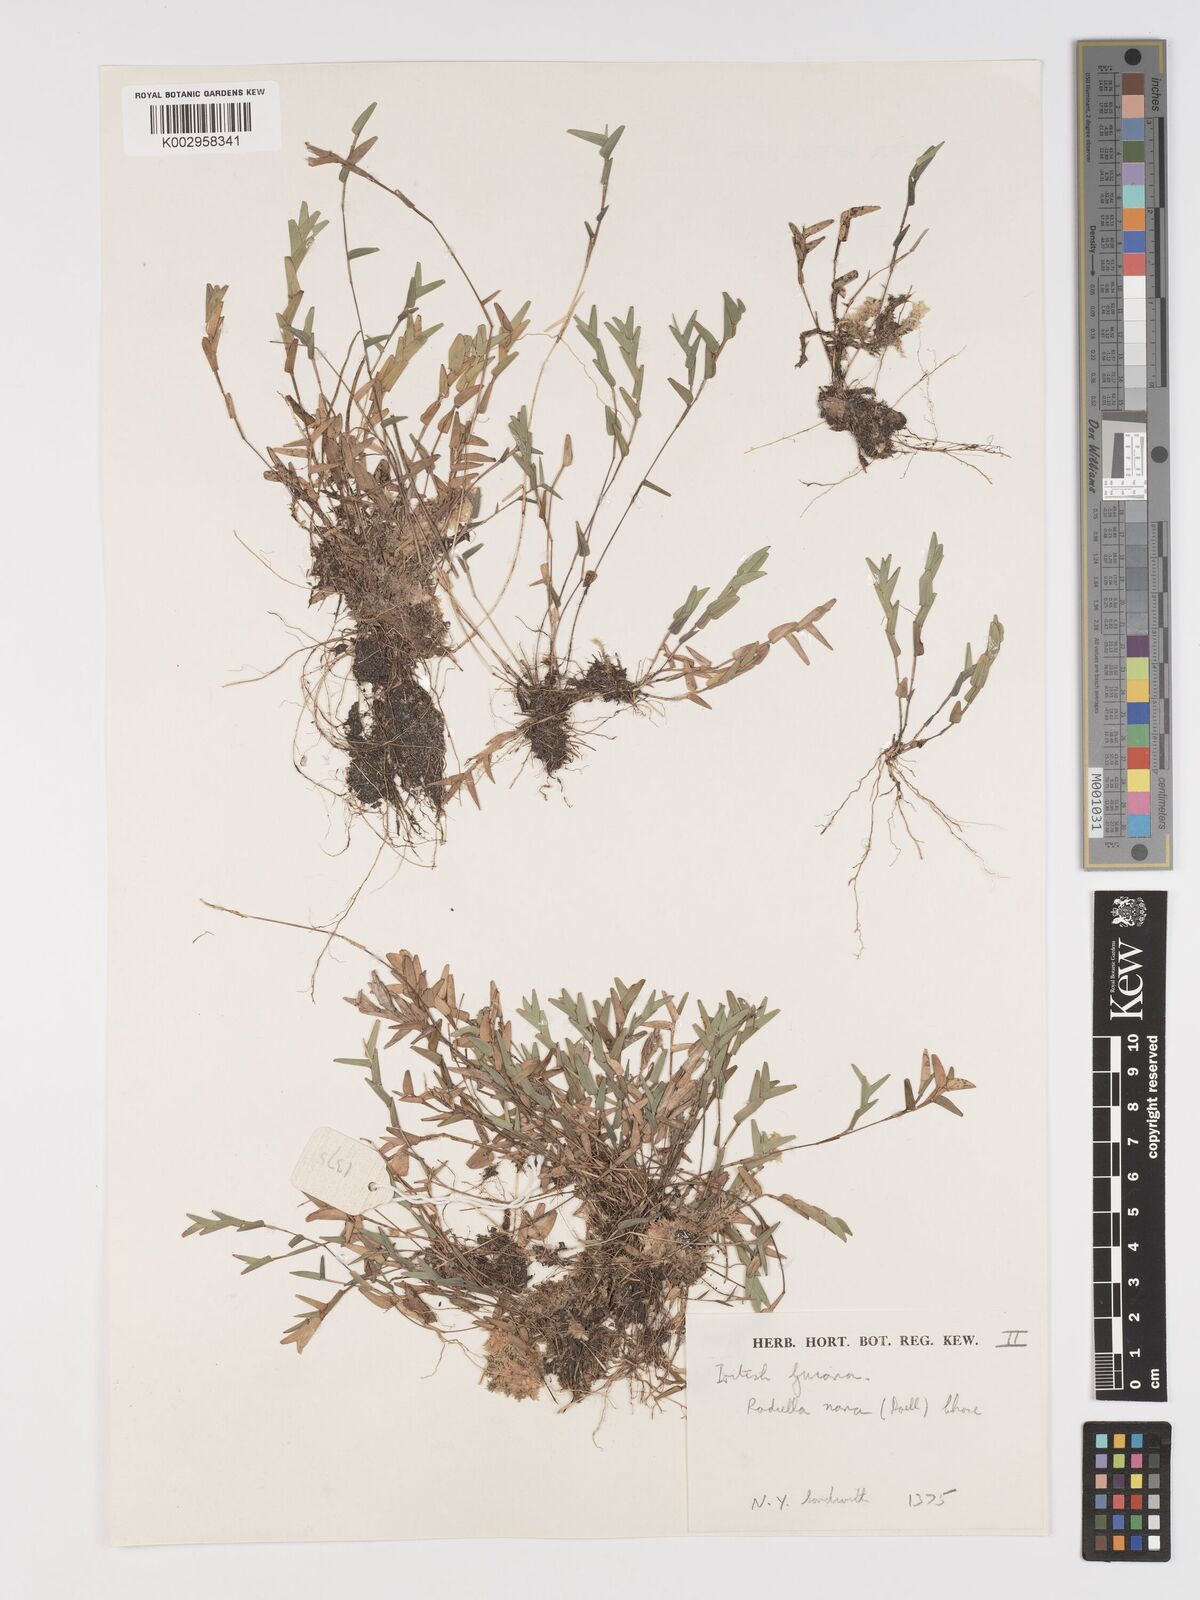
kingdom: Plantae
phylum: Tracheophyta
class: Liliopsida
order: Poales
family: Poaceae
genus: Raddiella
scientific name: Raddiella esenbeckii
